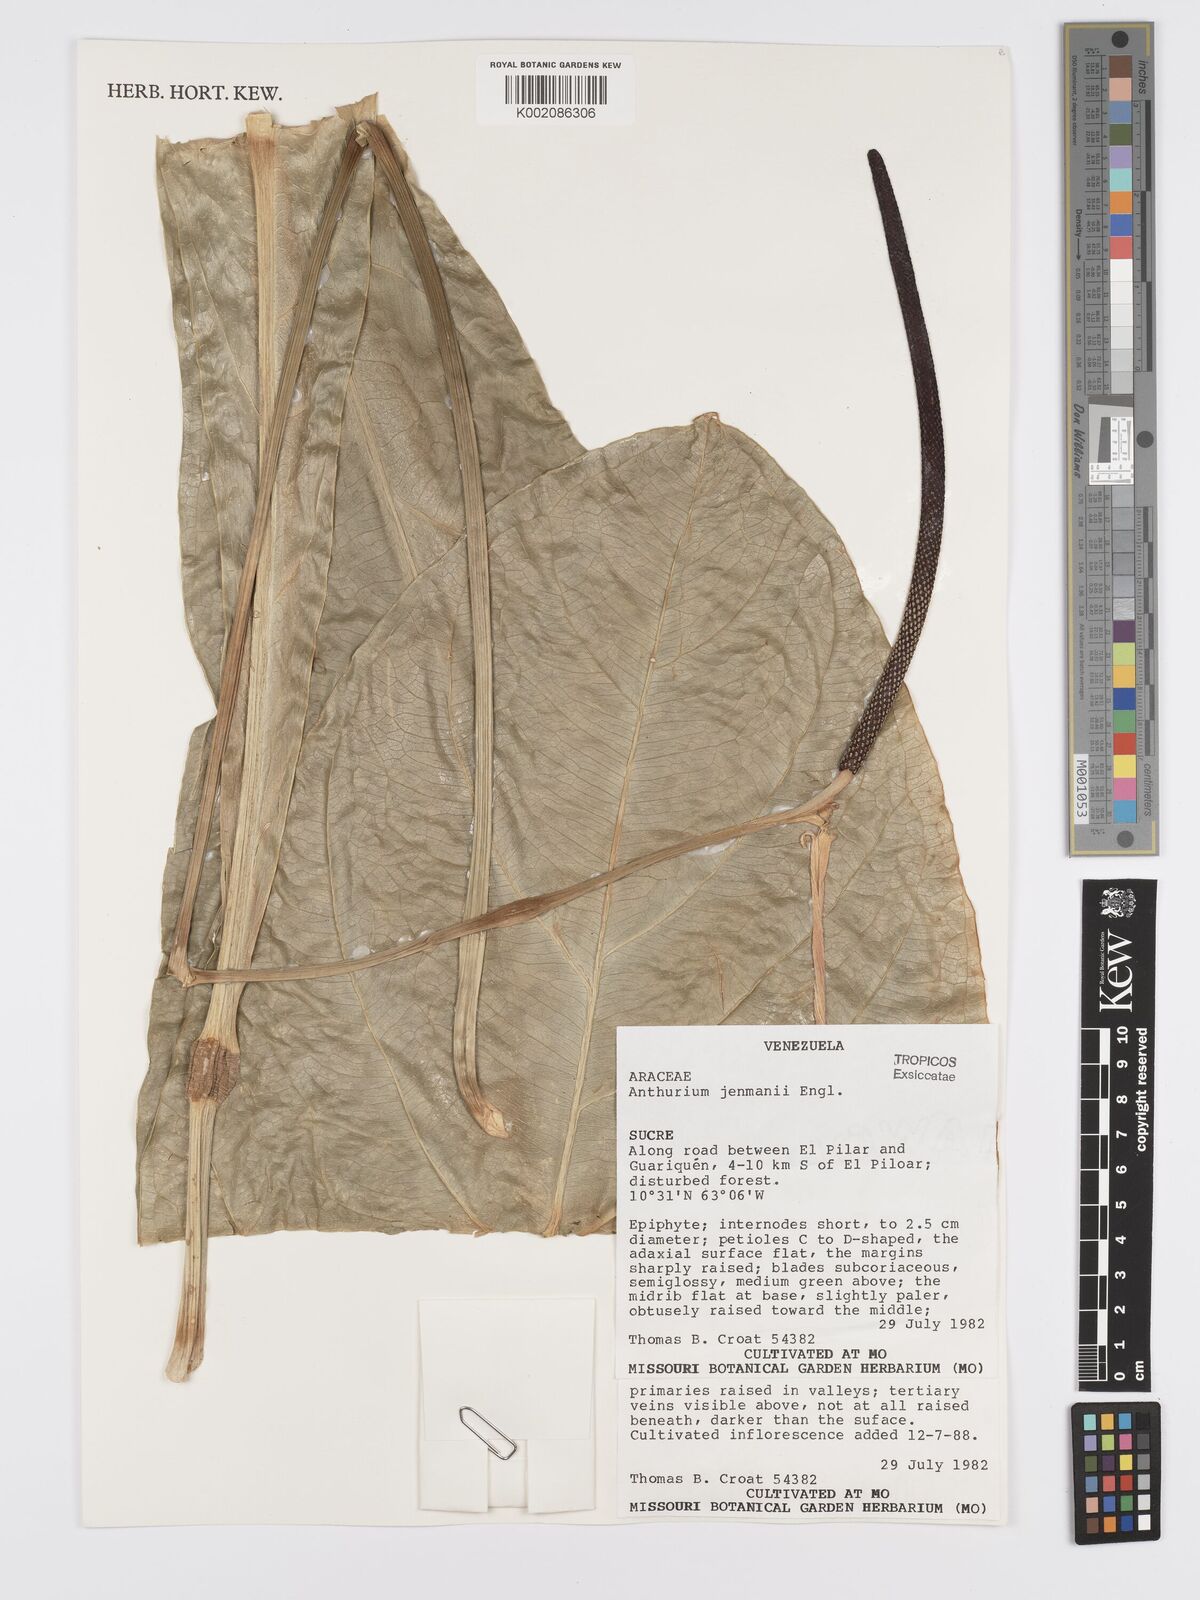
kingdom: Plantae
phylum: Tracheophyta
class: Liliopsida
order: Alismatales
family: Araceae
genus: Anthurium
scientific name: Anthurium jenmanii
